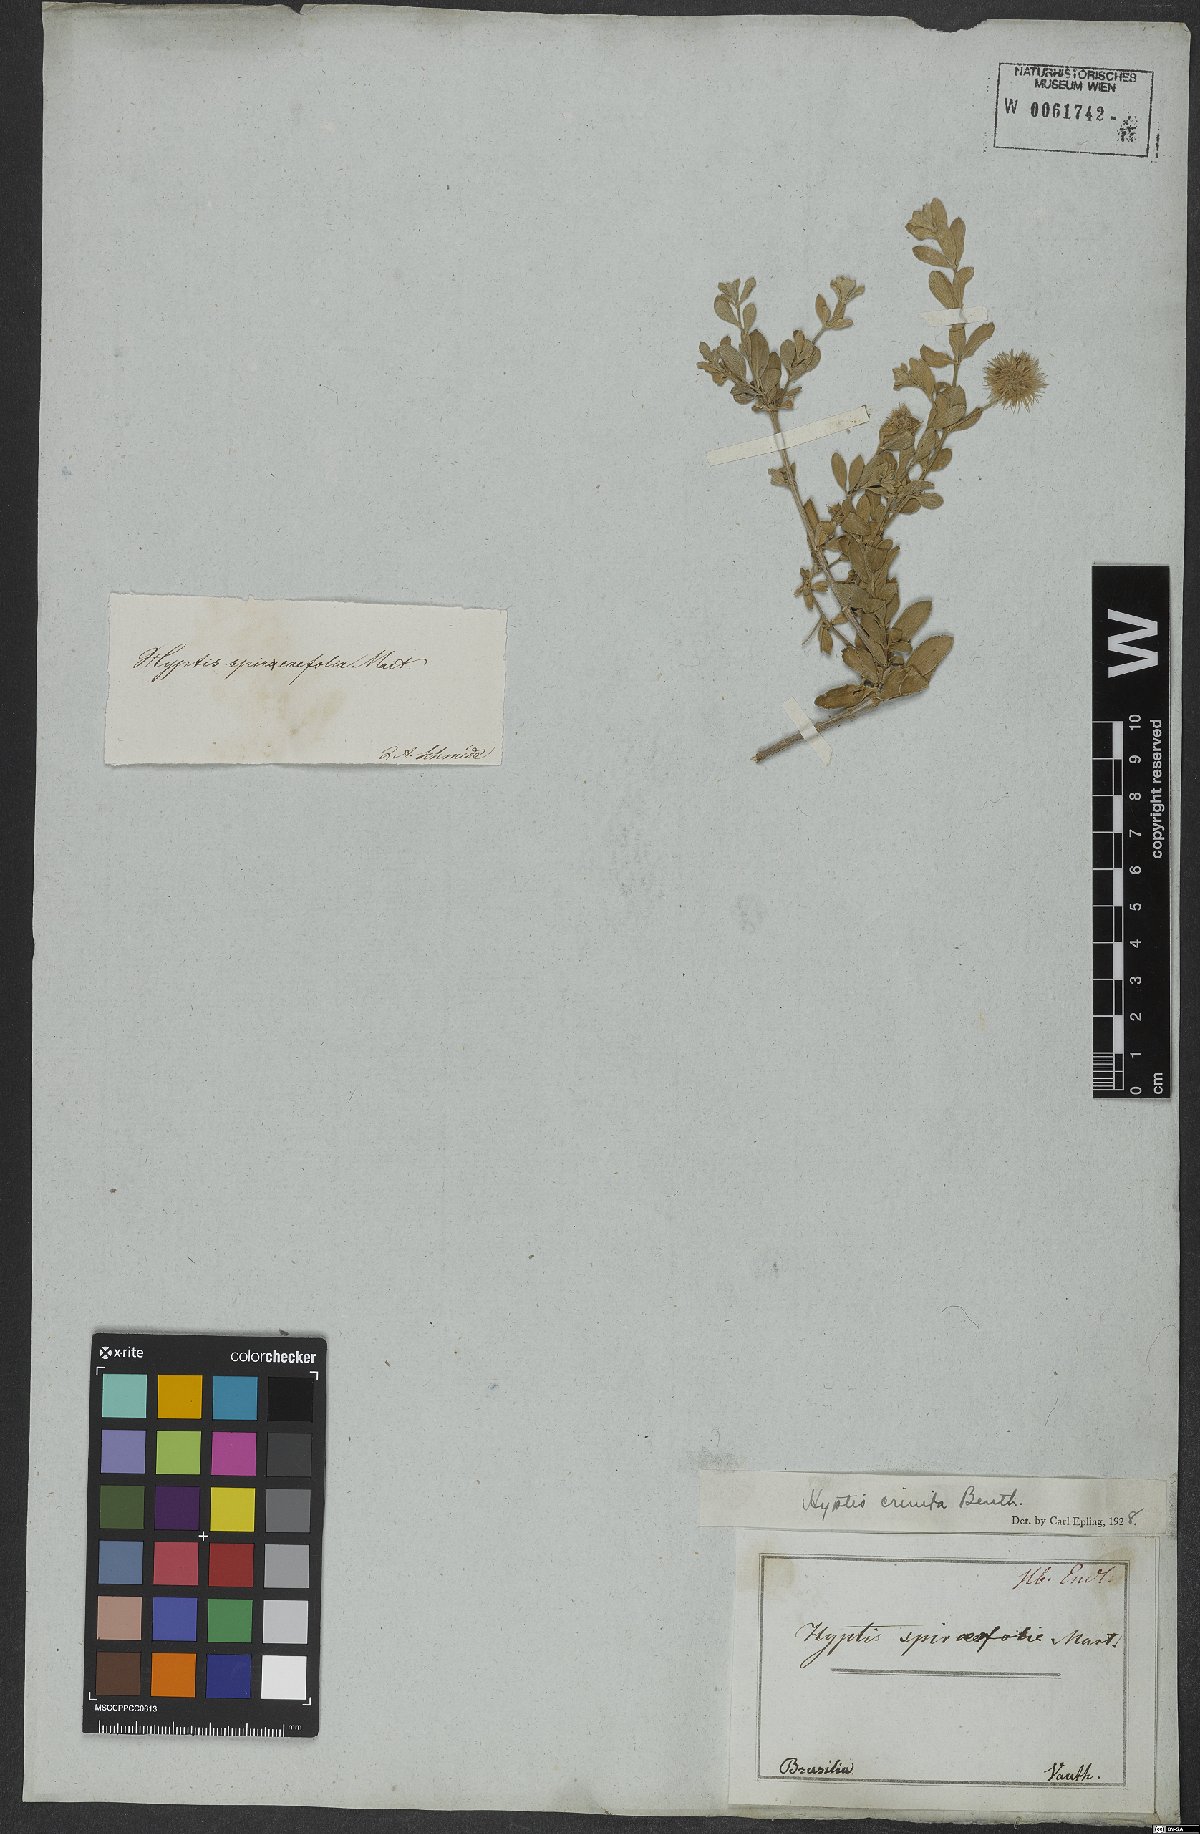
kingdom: Plantae
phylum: Tracheophyta
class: Magnoliopsida
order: Lamiales
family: Lamiaceae
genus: Medusantha
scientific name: Medusantha crinita
